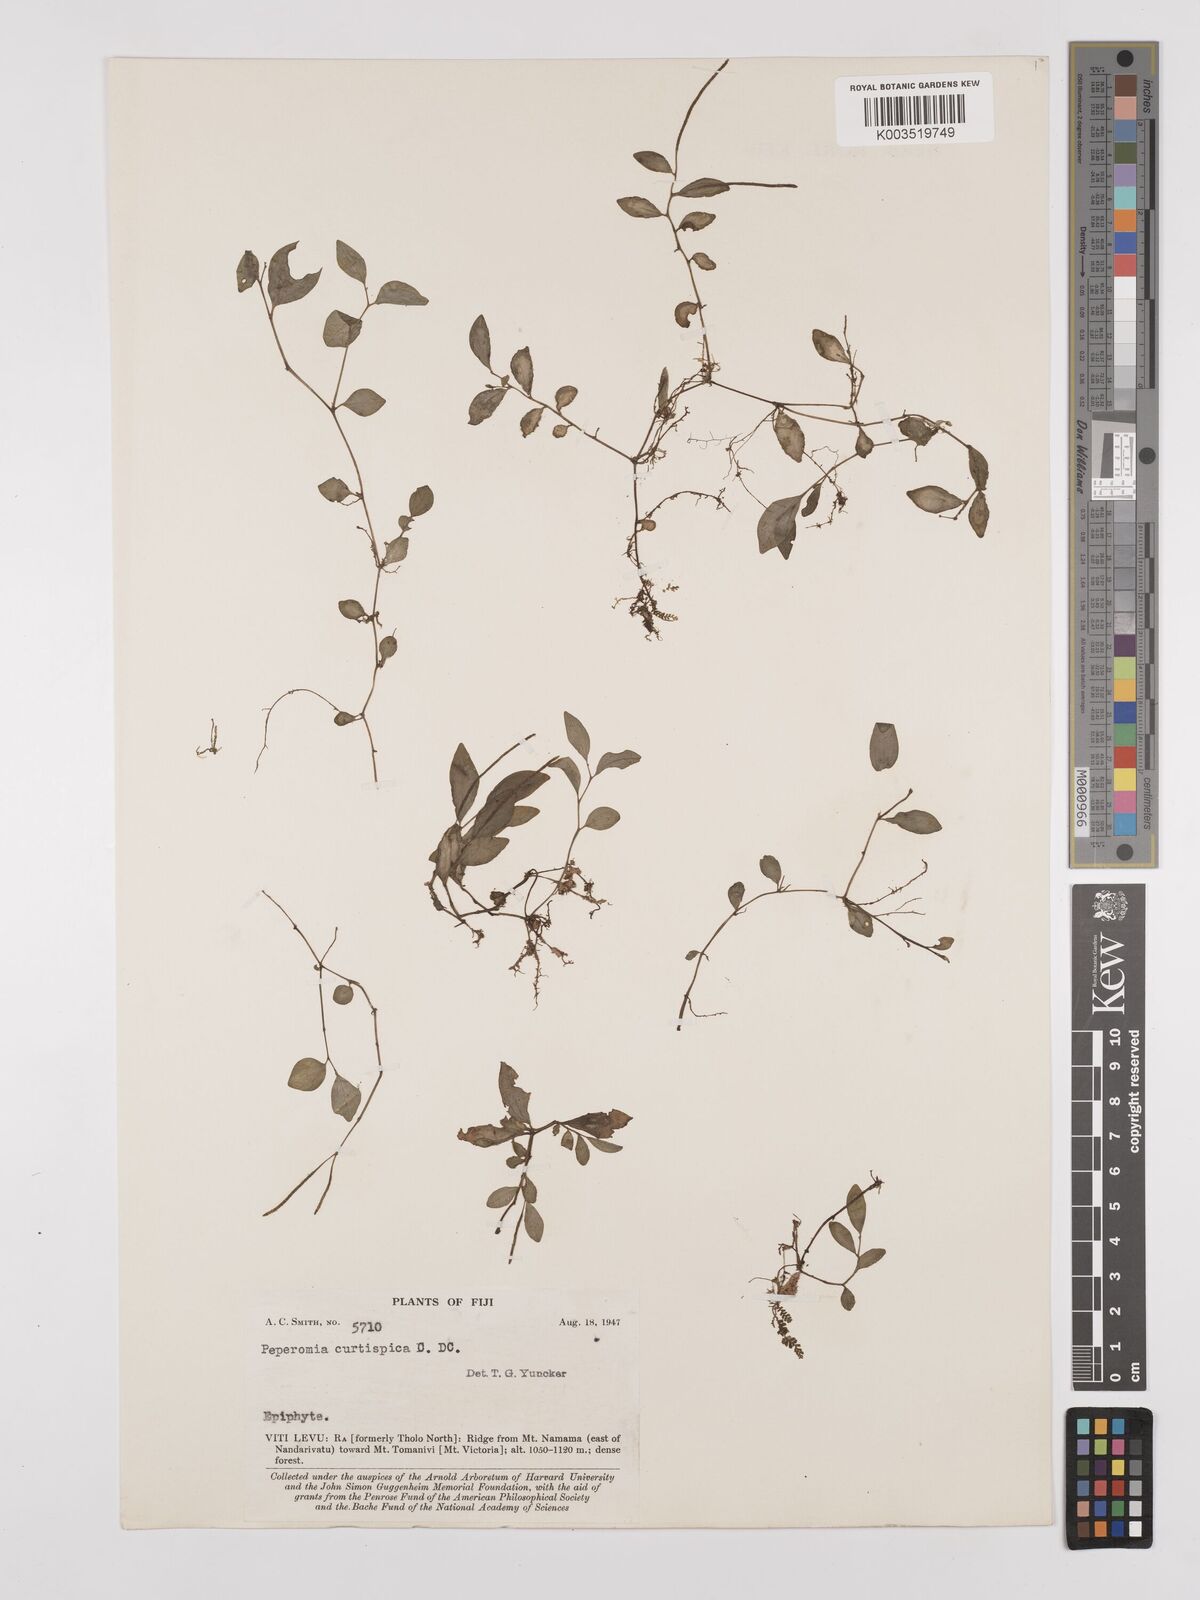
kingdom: Plantae
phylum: Tracheophyta
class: Magnoliopsida
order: Piperales
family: Piperaceae
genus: Peperomia
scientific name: Peperomia curtispica
